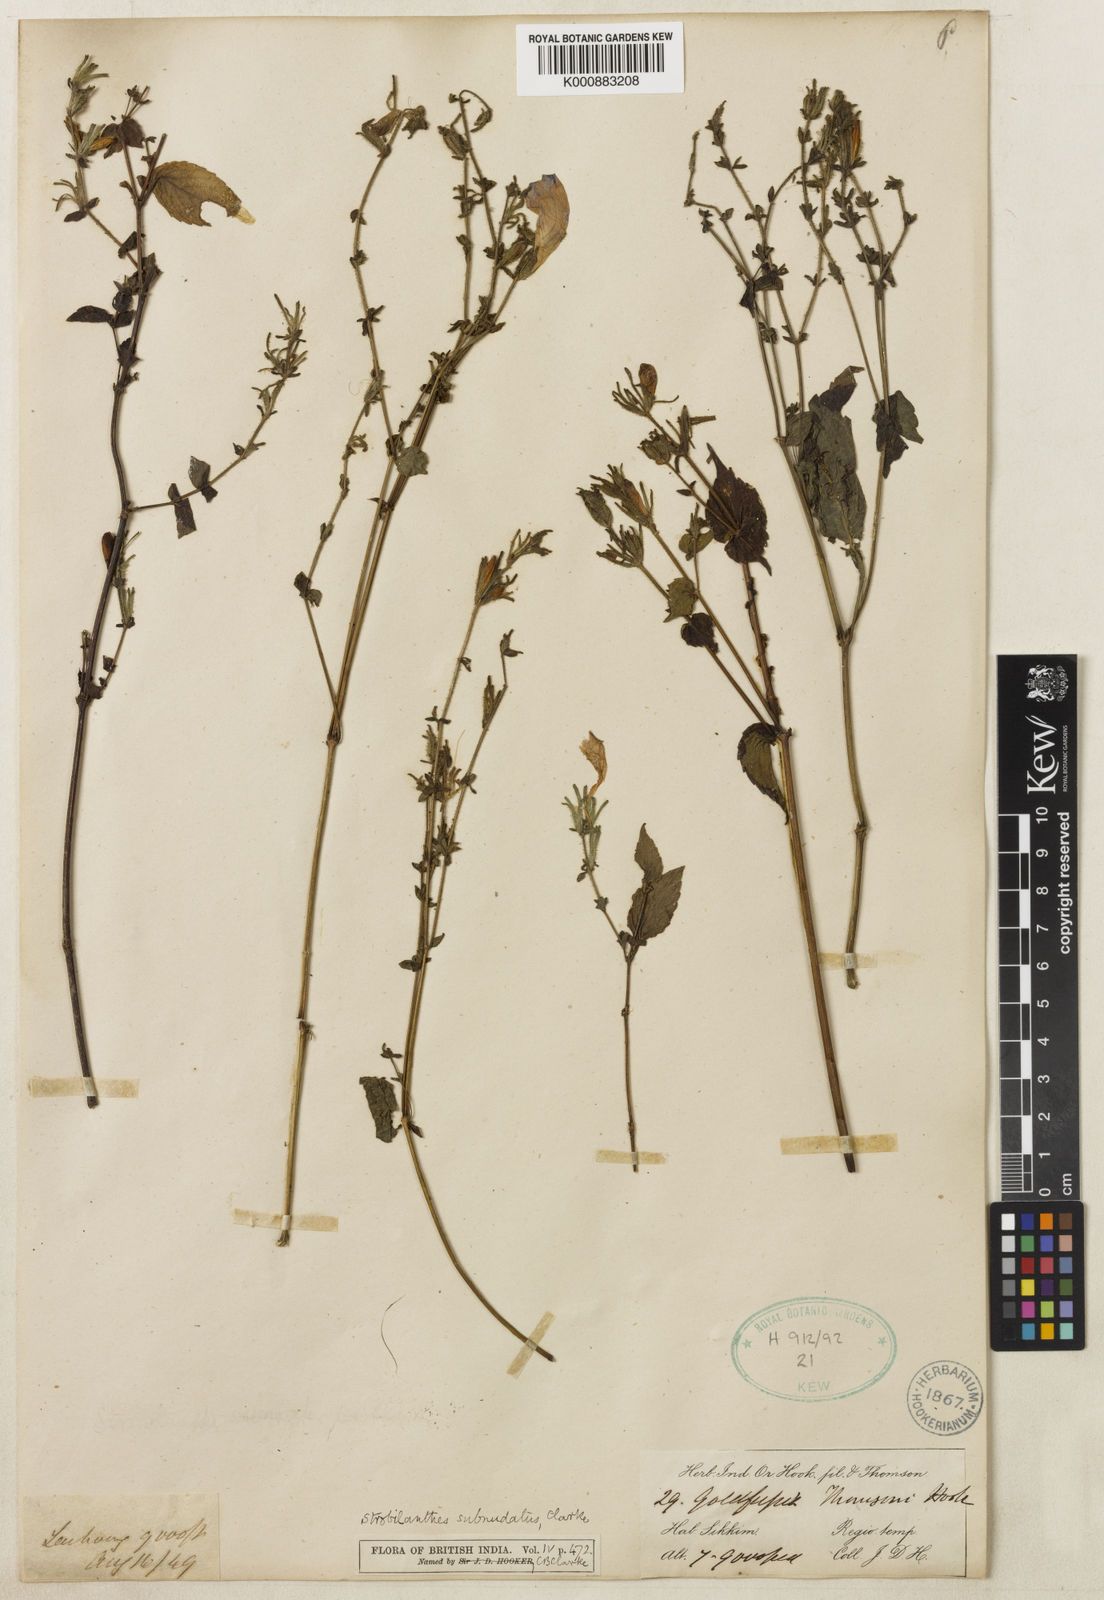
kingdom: Plantae
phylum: Tracheophyta
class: Magnoliopsida
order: Lamiales
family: Acanthaceae
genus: Strobilanthes
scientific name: Strobilanthes subnudata
